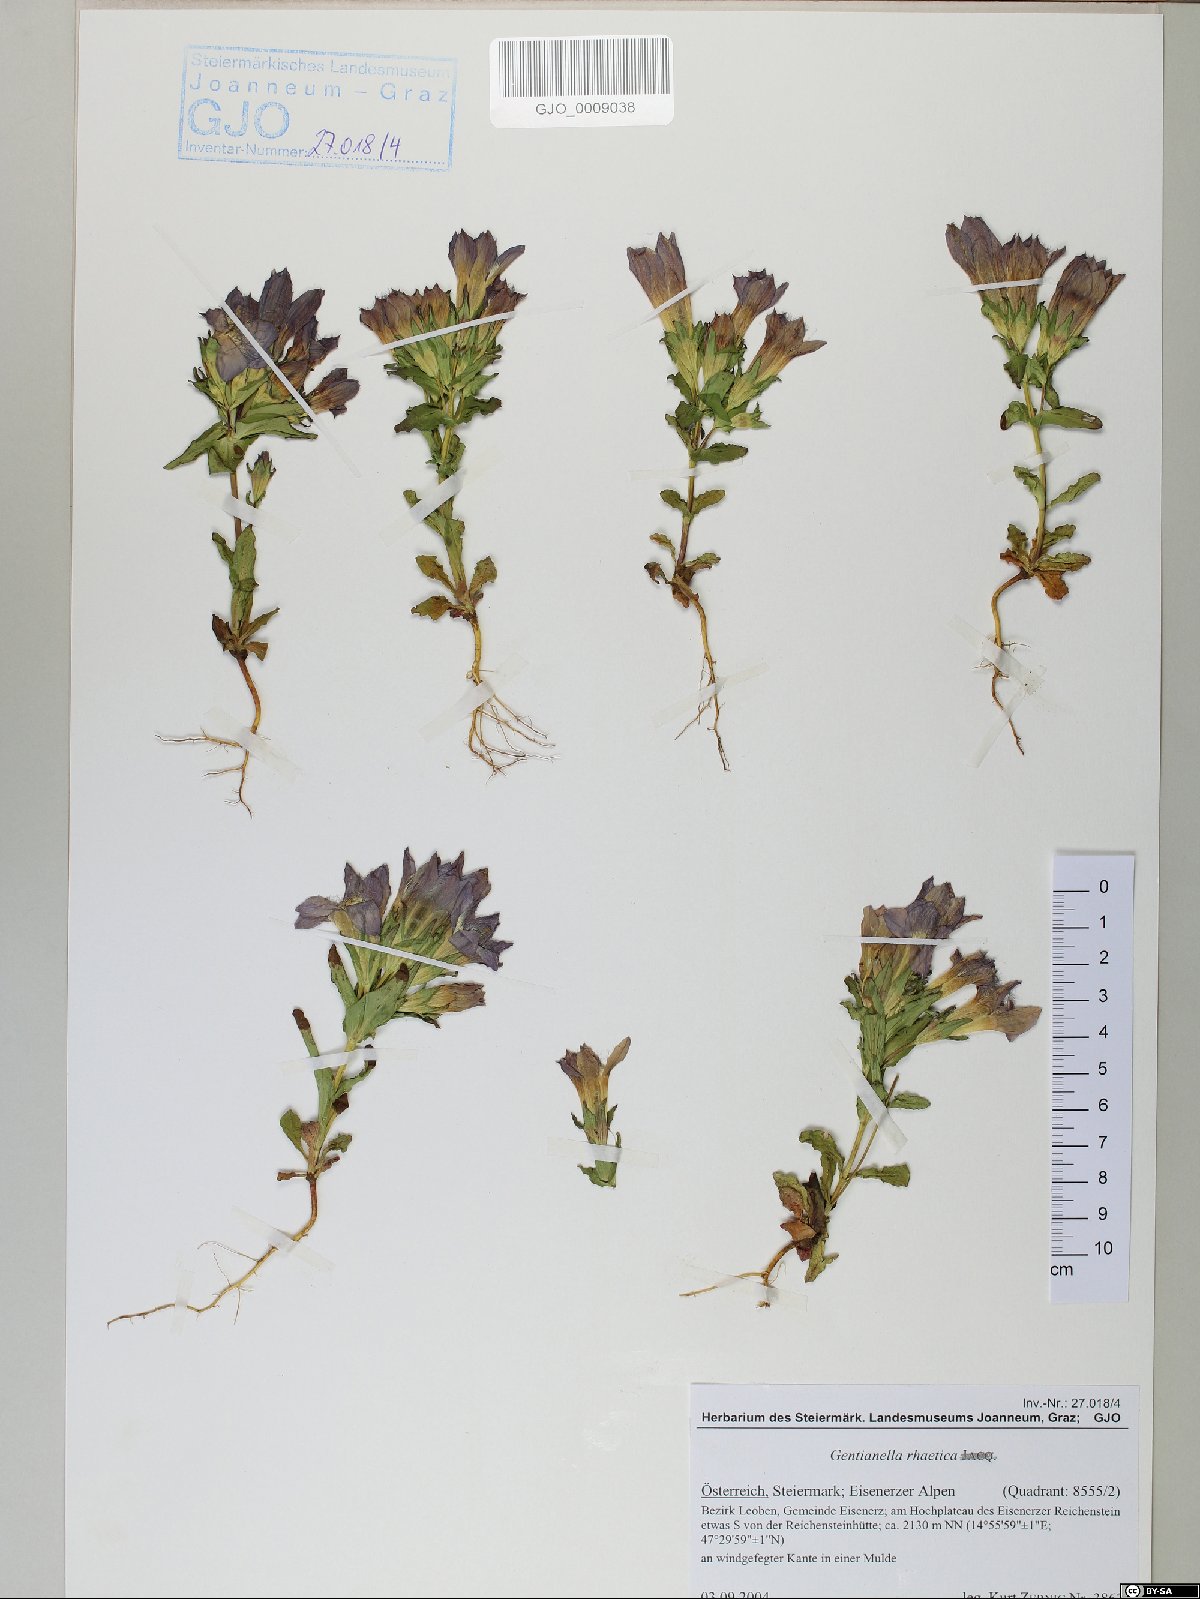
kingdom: Plantae
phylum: Tracheophyta
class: Magnoliopsida
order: Gentianales
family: Gentianaceae
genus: Gentianella
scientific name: Gentianella rhaetica
